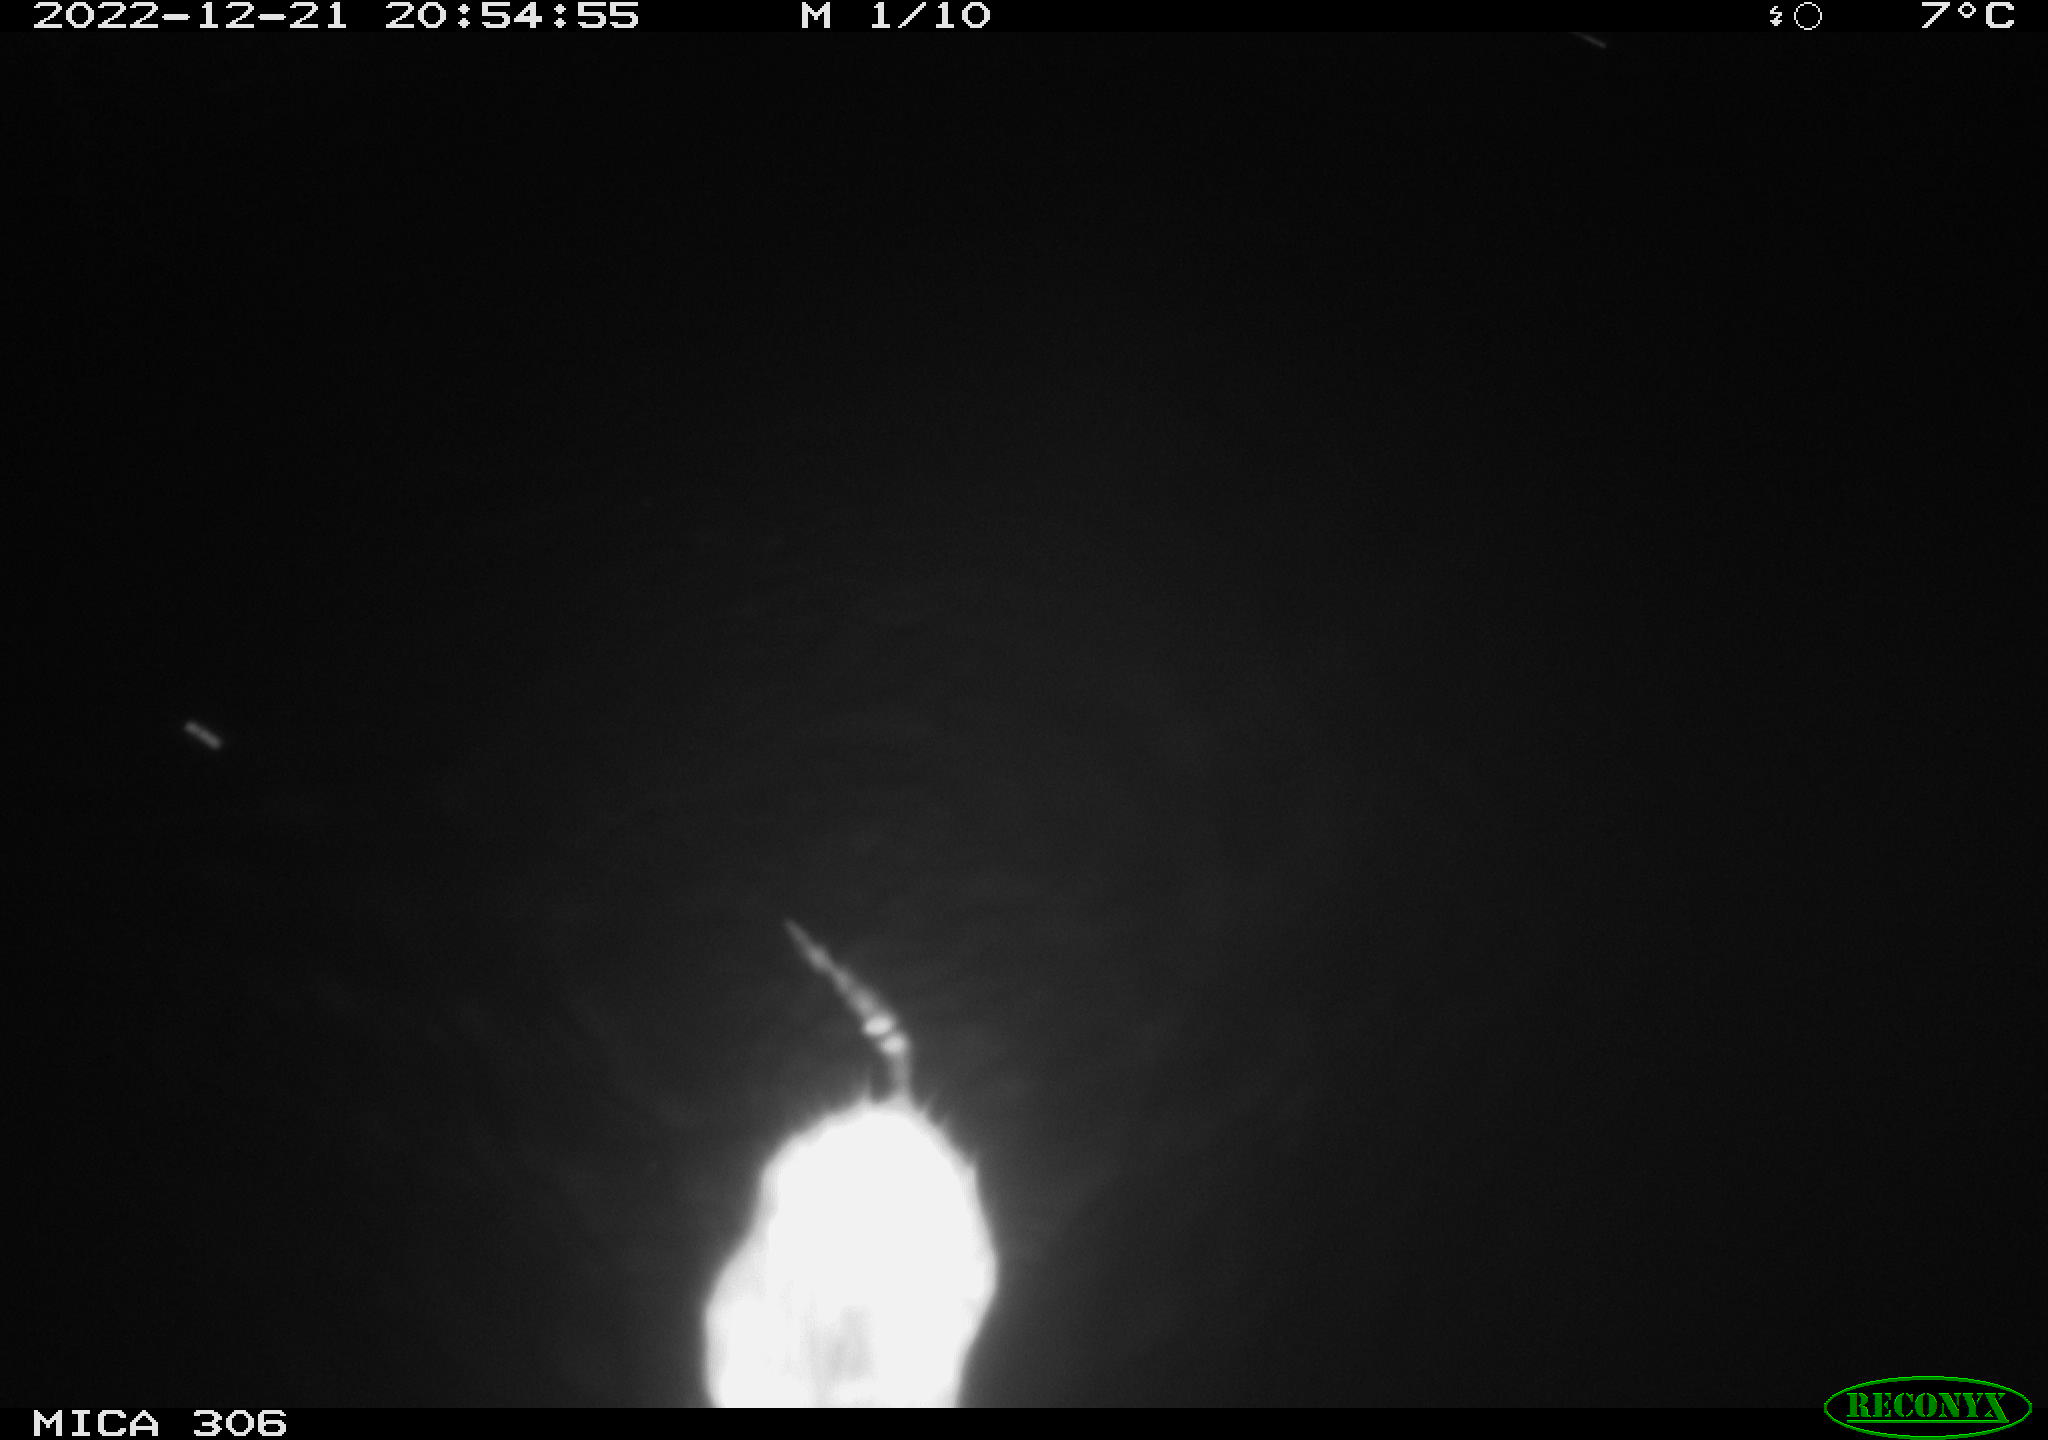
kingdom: Animalia
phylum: Chordata
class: Mammalia
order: Rodentia
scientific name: Rodentia
